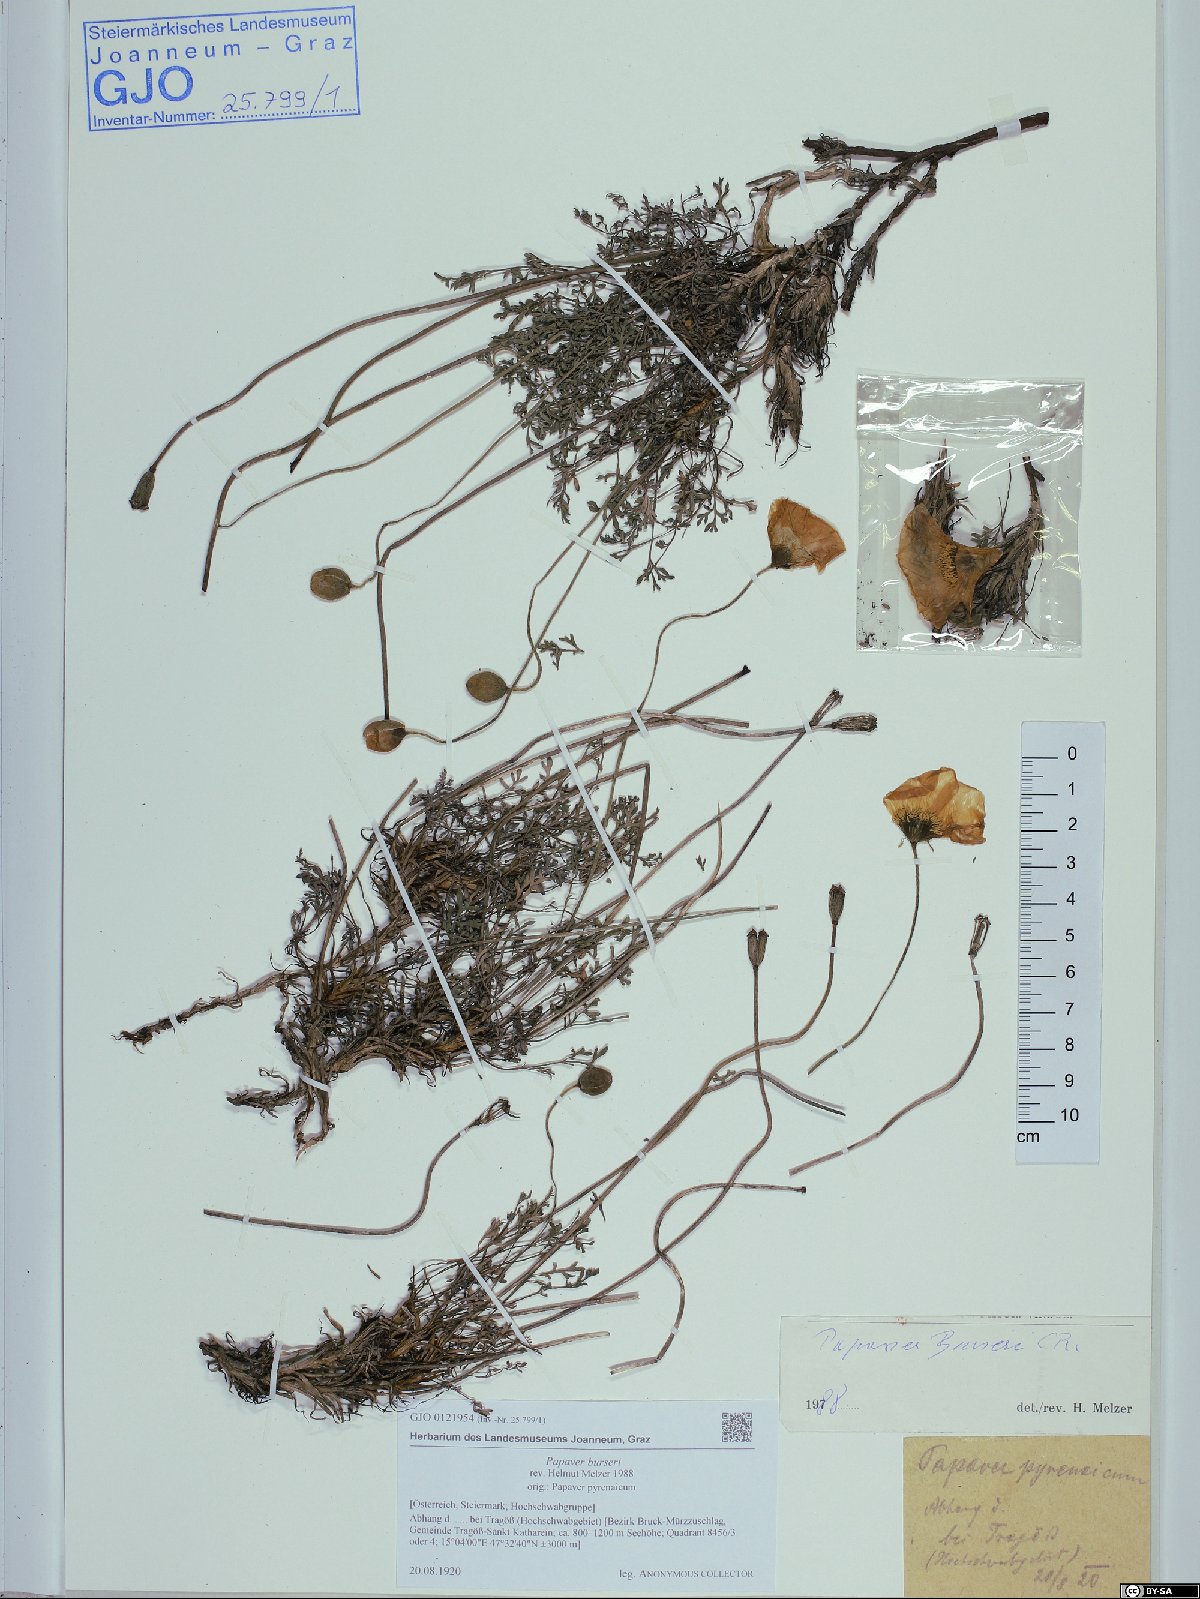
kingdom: Plantae
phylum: Tracheophyta
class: Magnoliopsida
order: Ranunculales
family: Papaveraceae
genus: Papaver
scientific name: Papaver alpinum
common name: Austrian poppy
